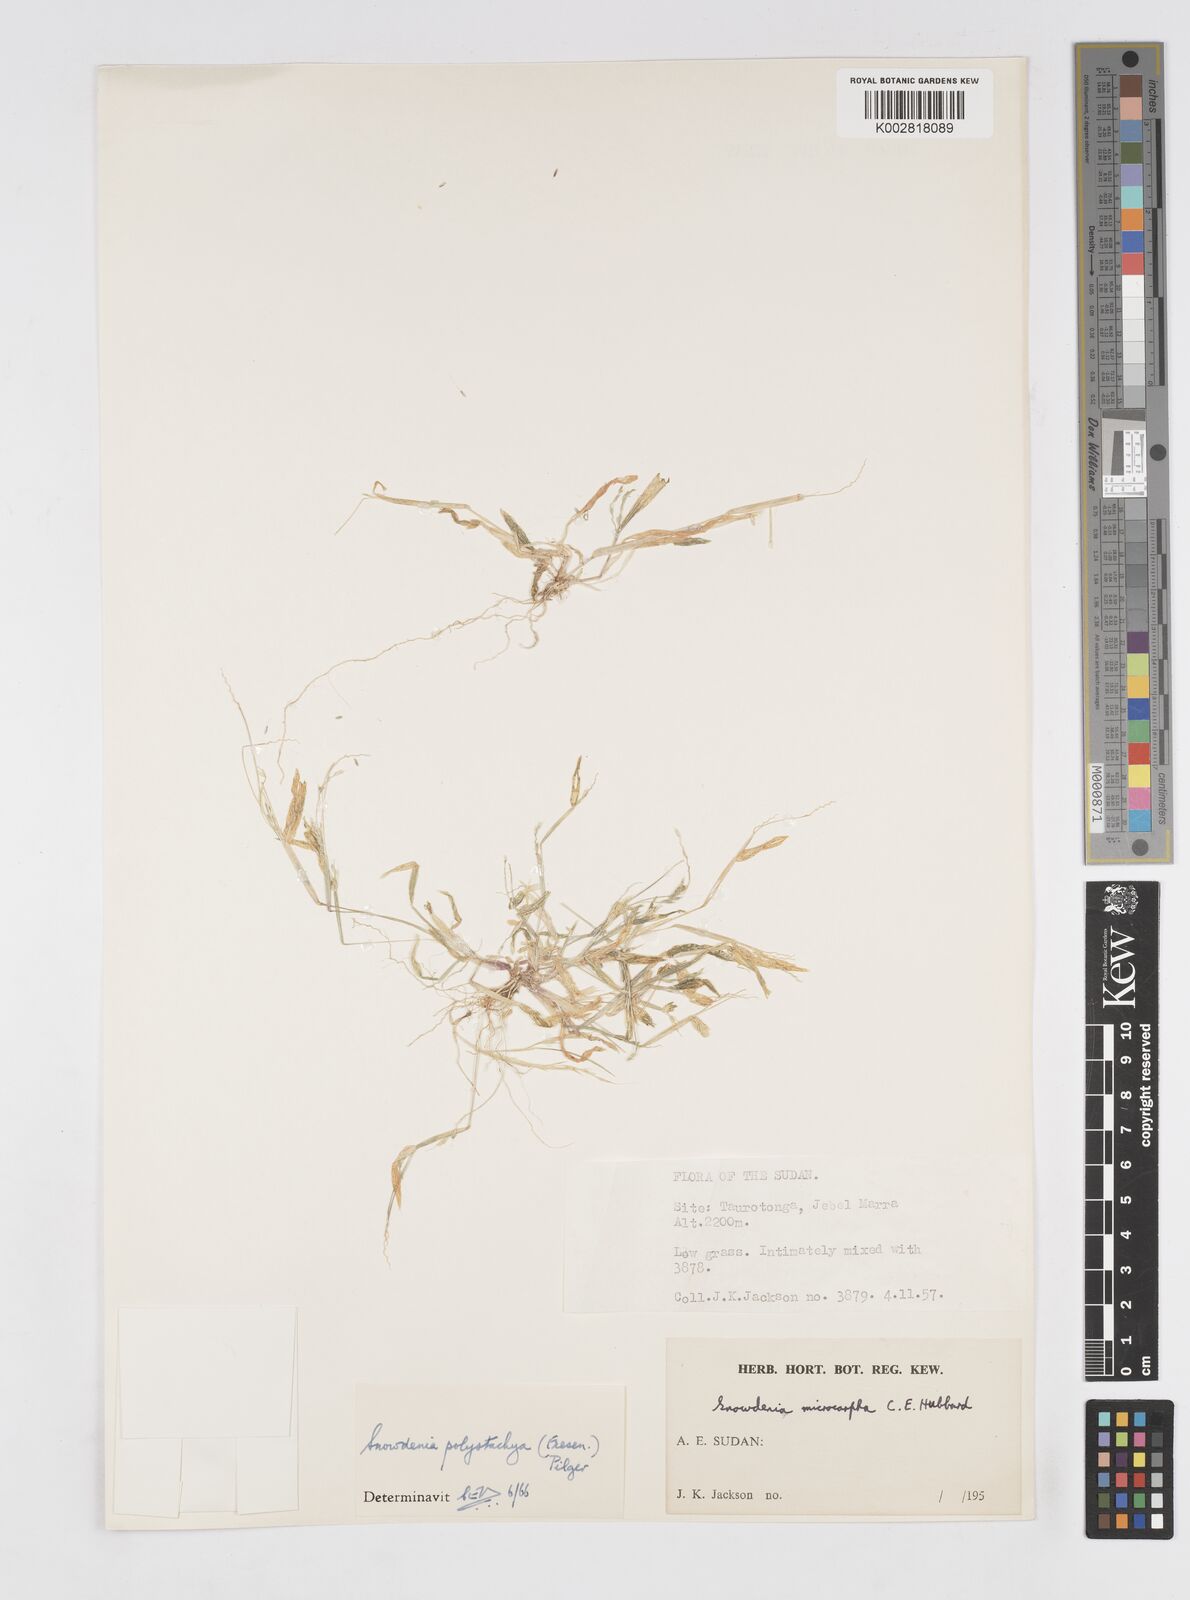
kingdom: Plantae
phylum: Tracheophyta
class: Liliopsida
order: Poales
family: Poaceae
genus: Snowdenia
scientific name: Snowdenia polystachya
